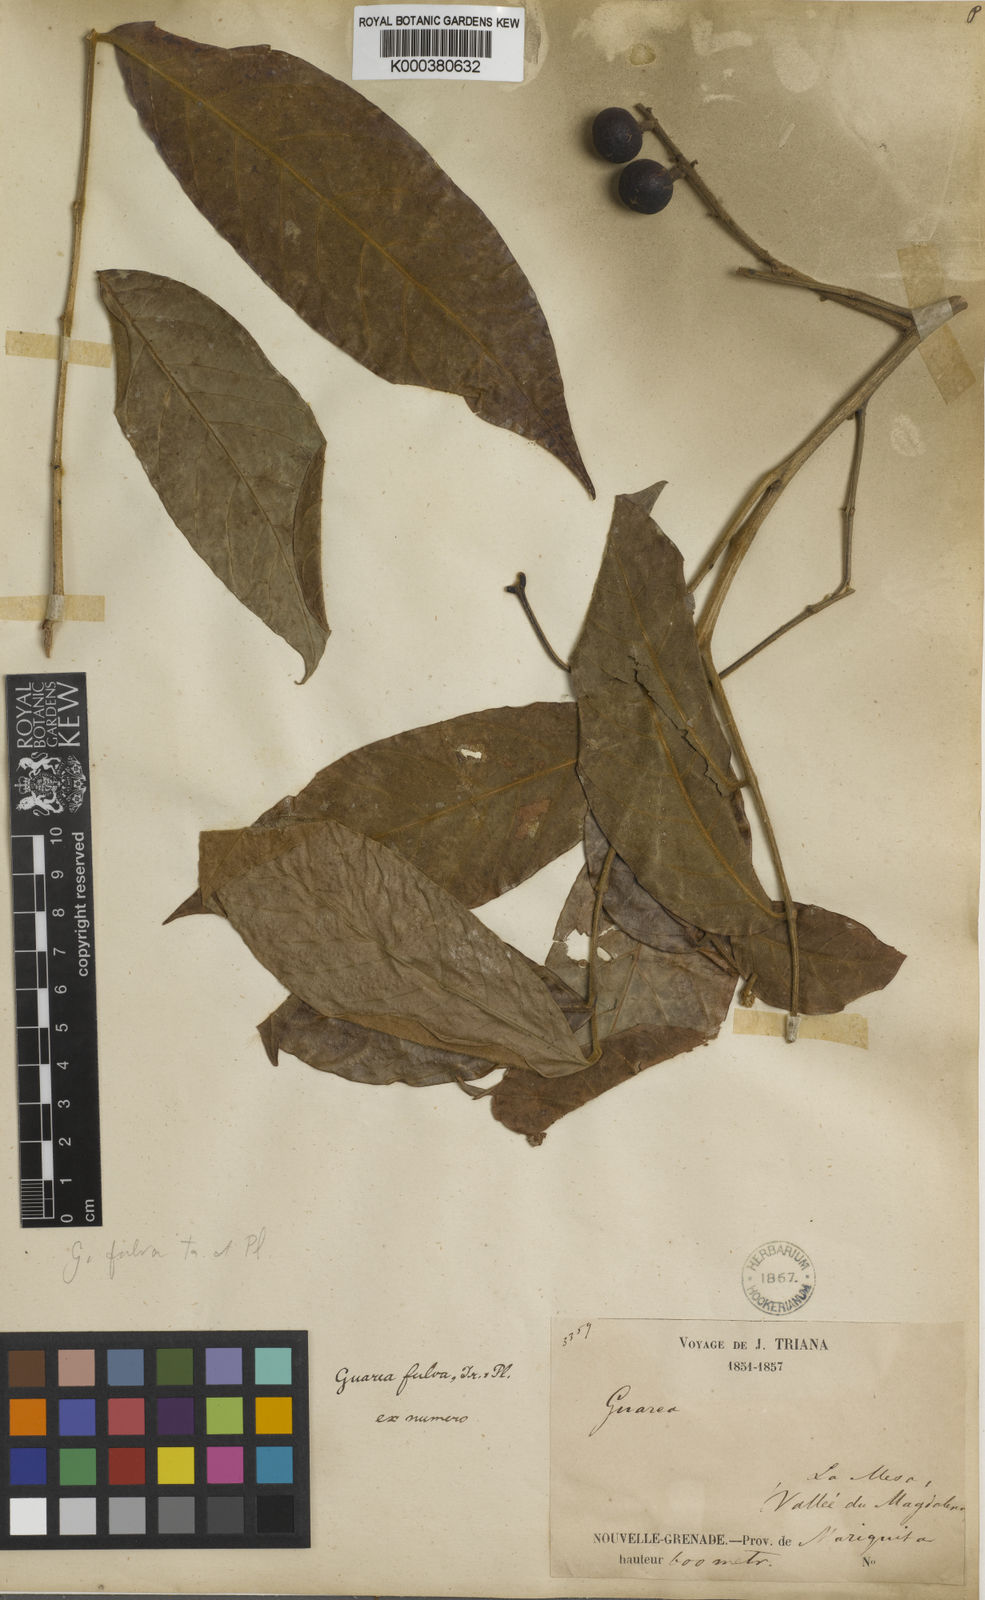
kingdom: Plantae
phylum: Tracheophyta
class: Magnoliopsida
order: Sapindales
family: Meliaceae
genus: Guarea
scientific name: Guarea glabra
